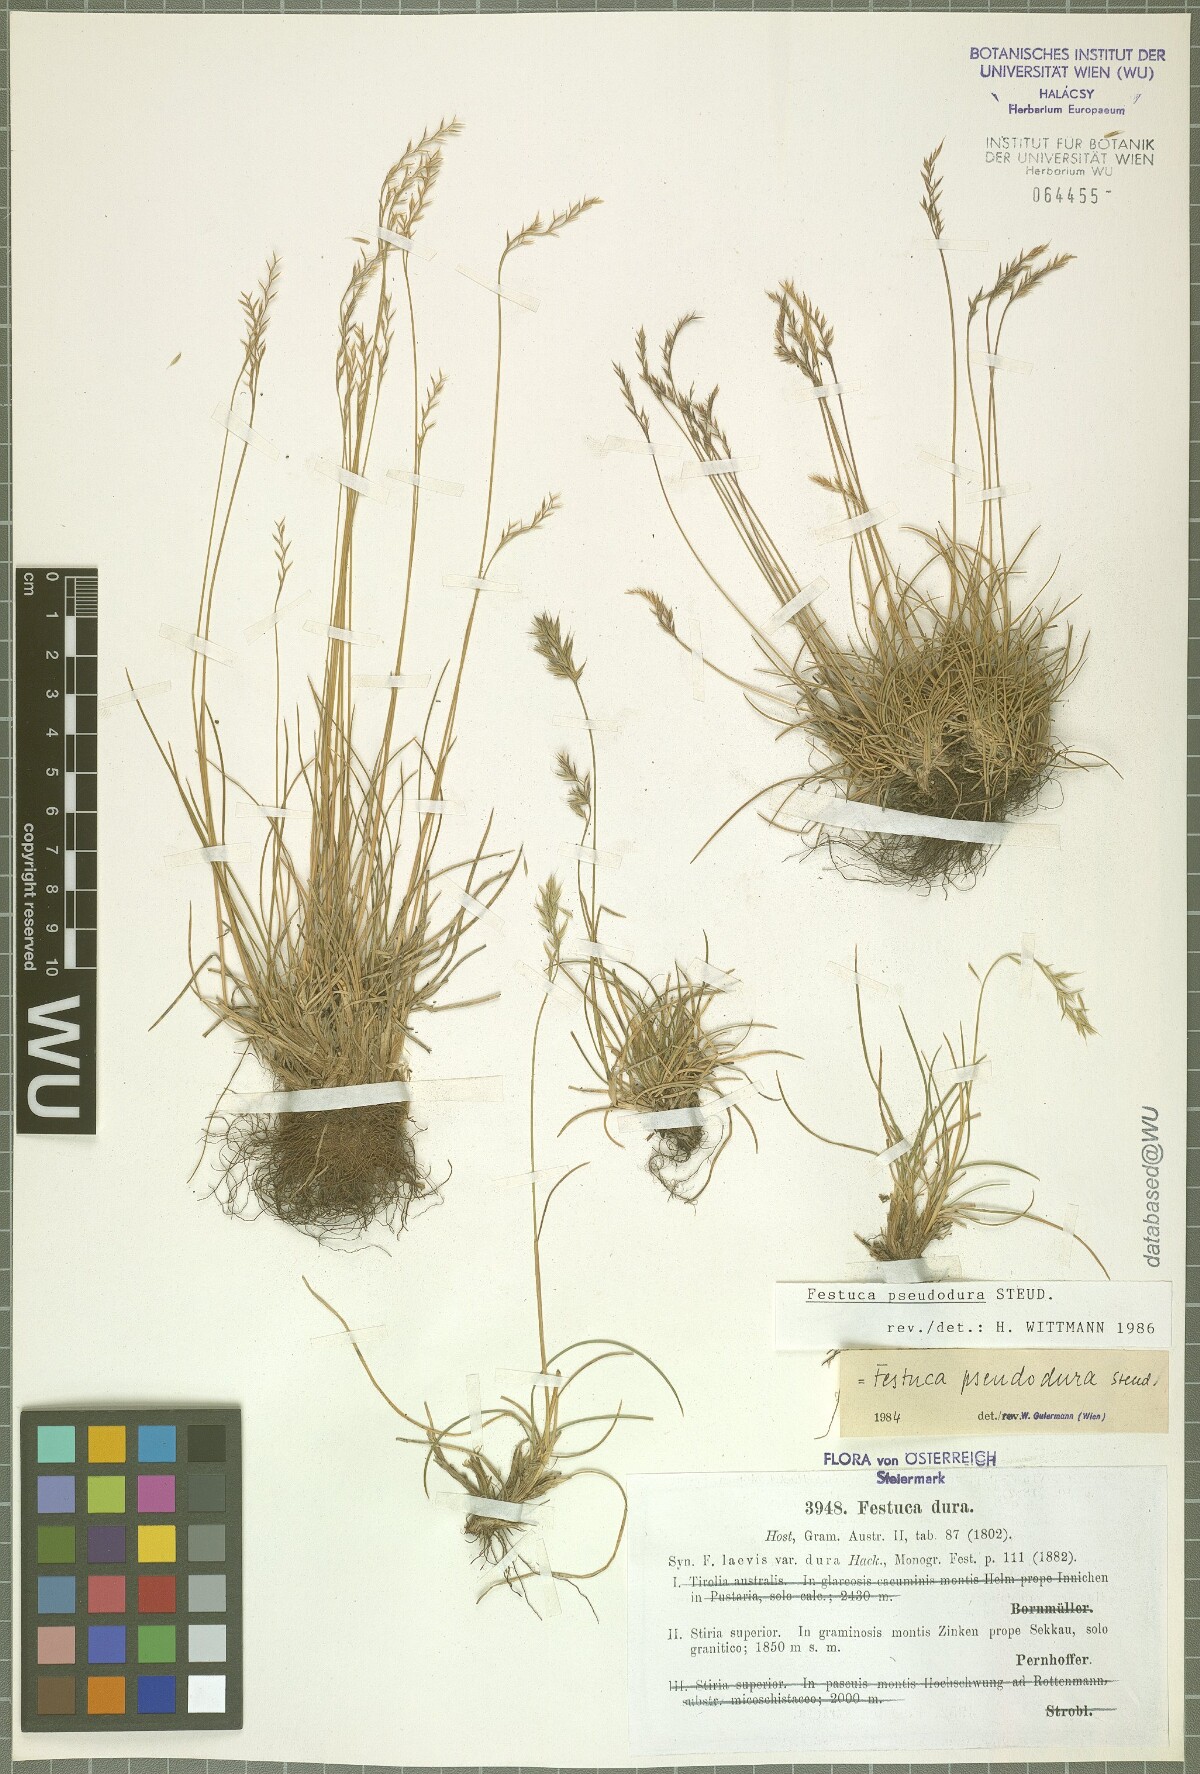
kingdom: Plantae
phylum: Tracheophyta
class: Liliopsida
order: Poales
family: Poaceae
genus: Festuca
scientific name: Festuca pseudodura
